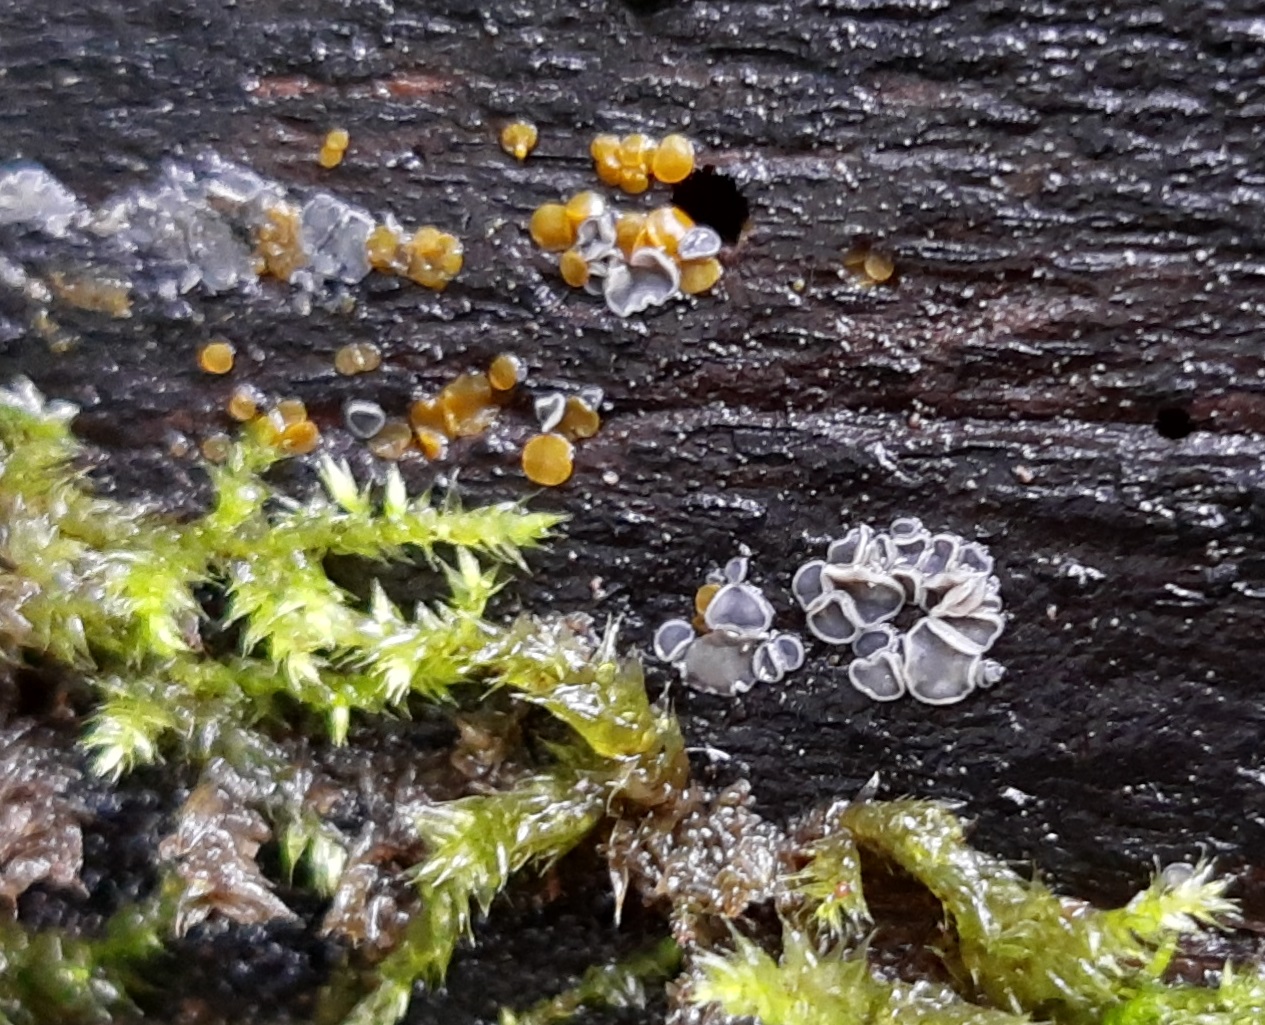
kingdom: Fungi
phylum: Ascomycota
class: Leotiomycetes
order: Helotiales
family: Mollisiaceae
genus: Mollisia
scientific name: Mollisia cinerea
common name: almindelig gråskive
